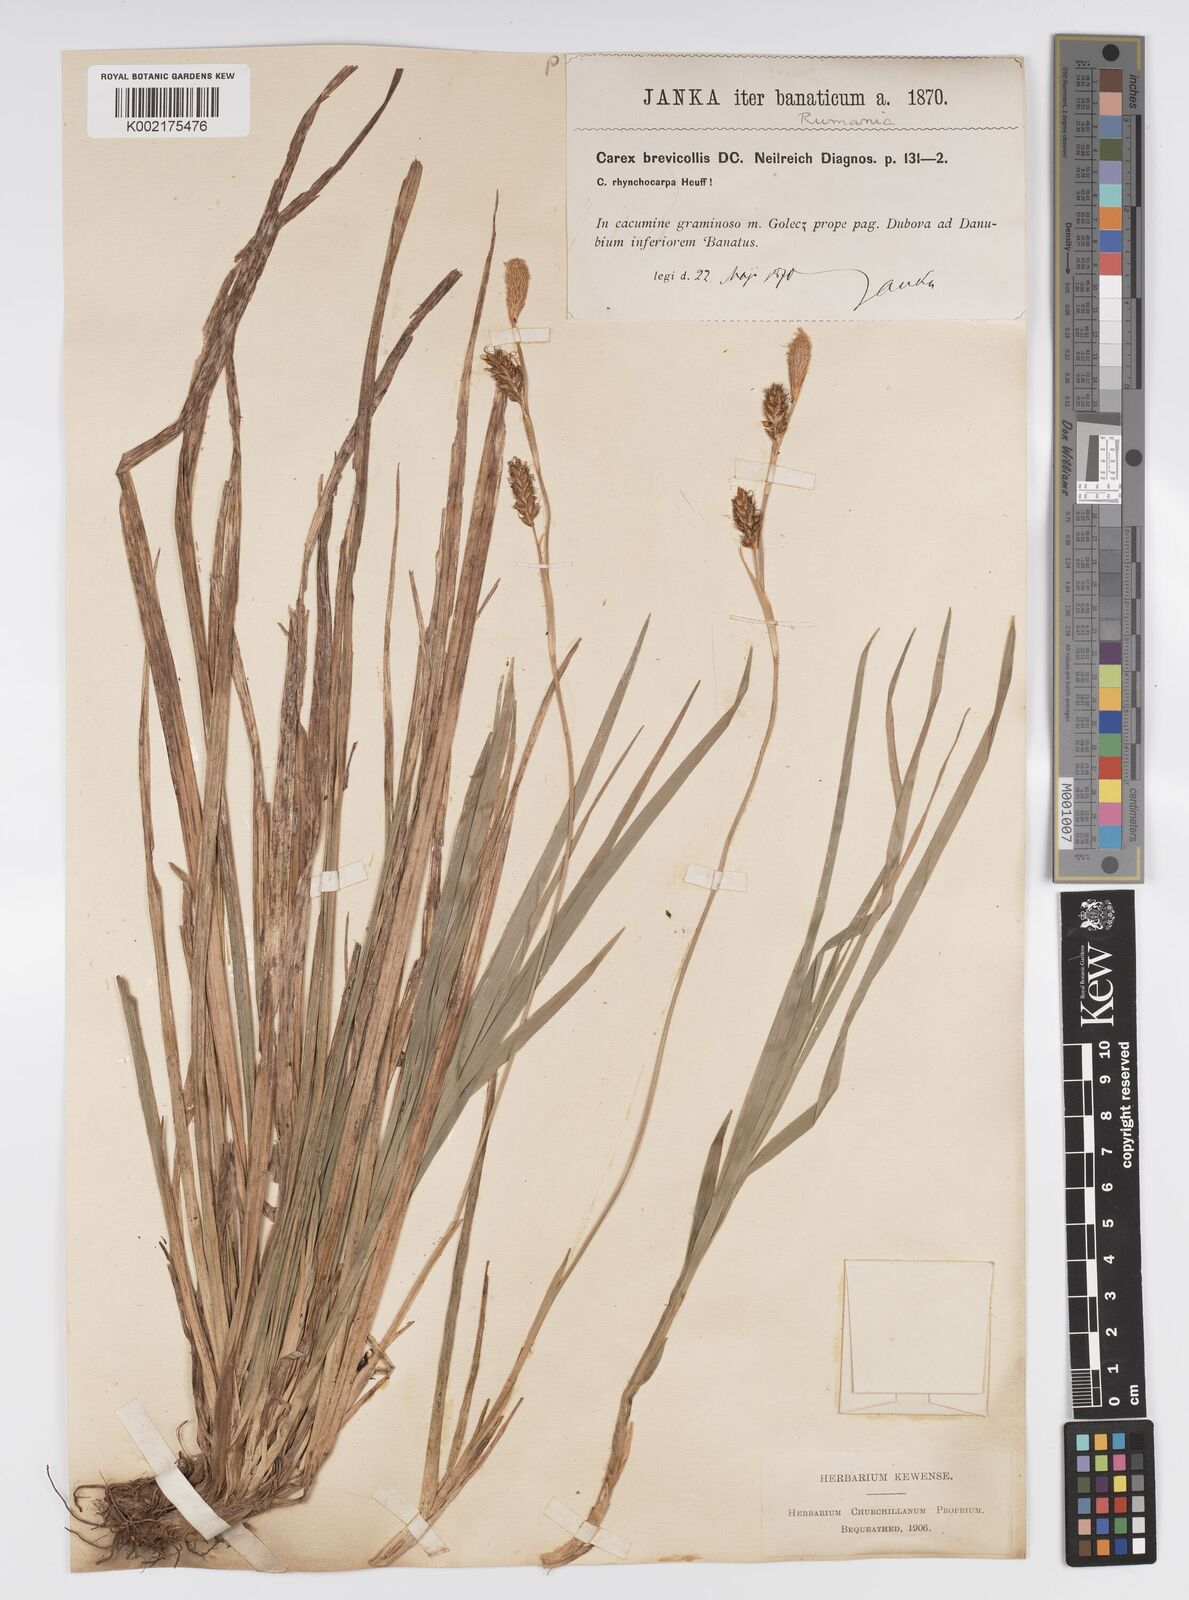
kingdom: Plantae
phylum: Tracheophyta
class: Liliopsida
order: Poales
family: Cyperaceae
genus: Carex
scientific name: Carex brevicollis
